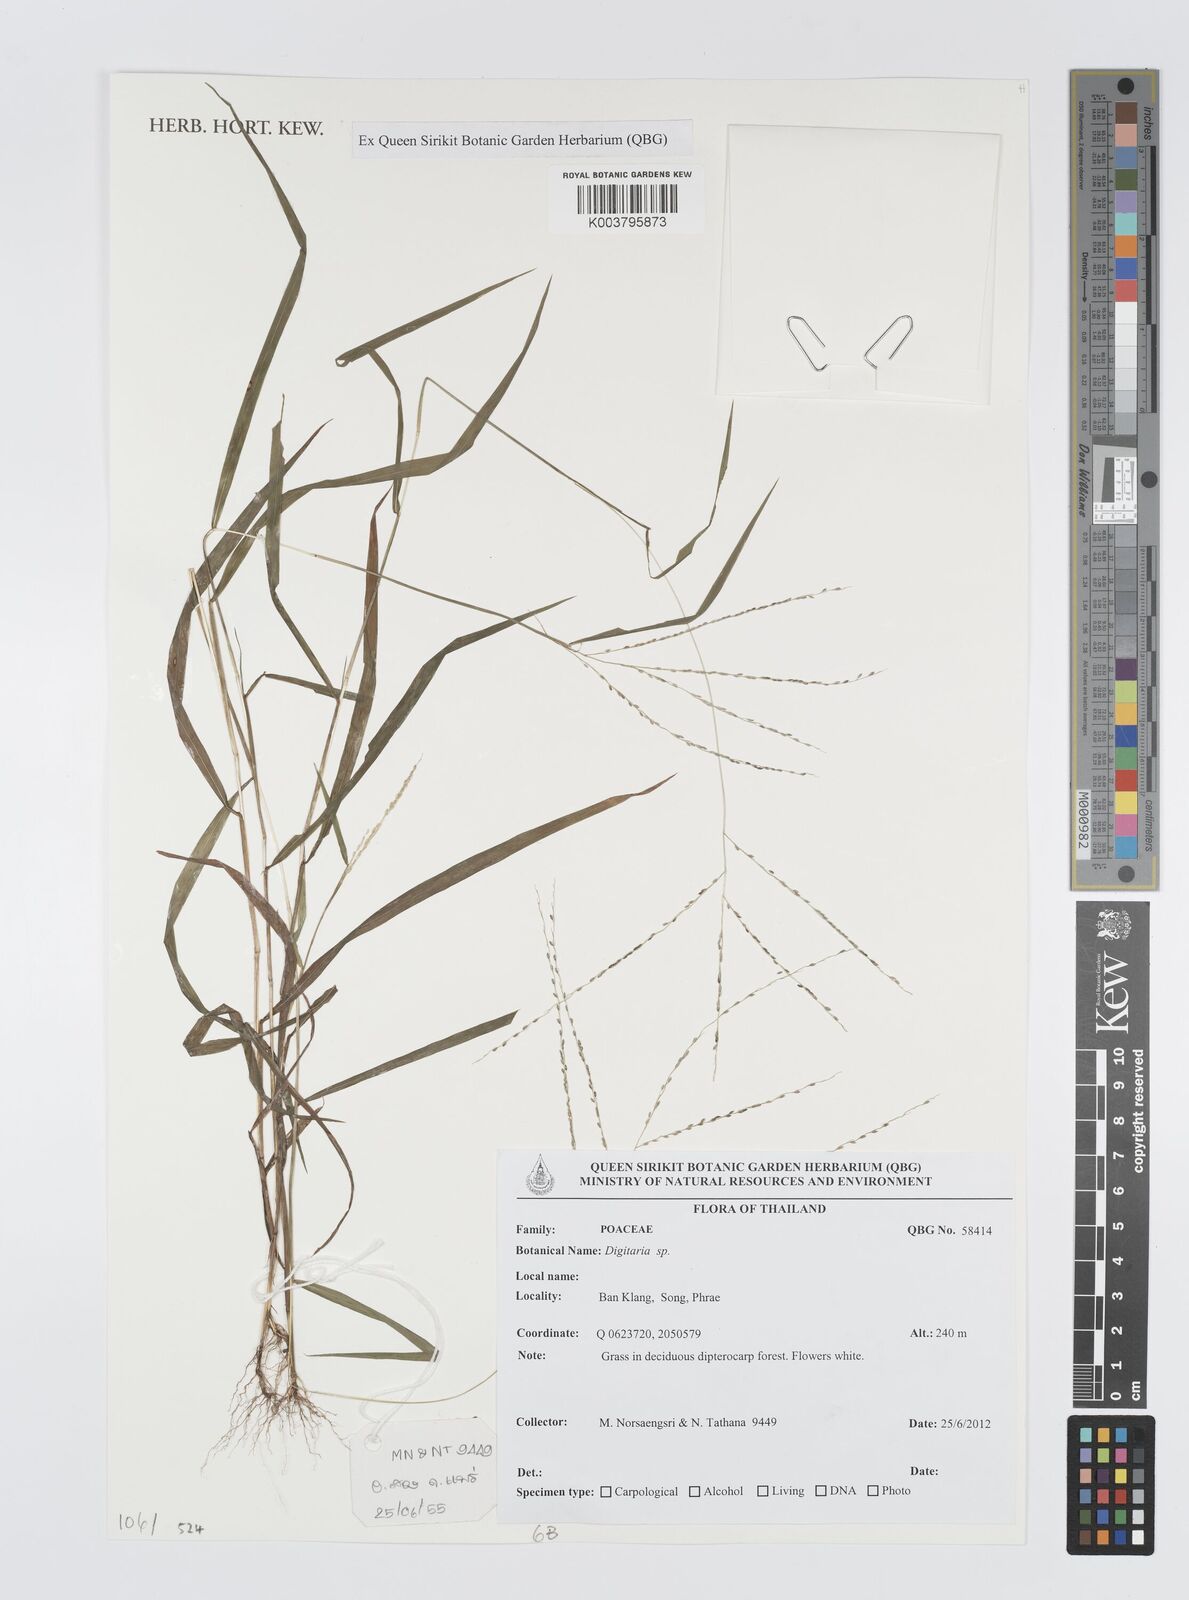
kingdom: Plantae
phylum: Tracheophyta
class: Liliopsida
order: Poales
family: Poaceae
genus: Digitaria
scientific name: Digitaria
